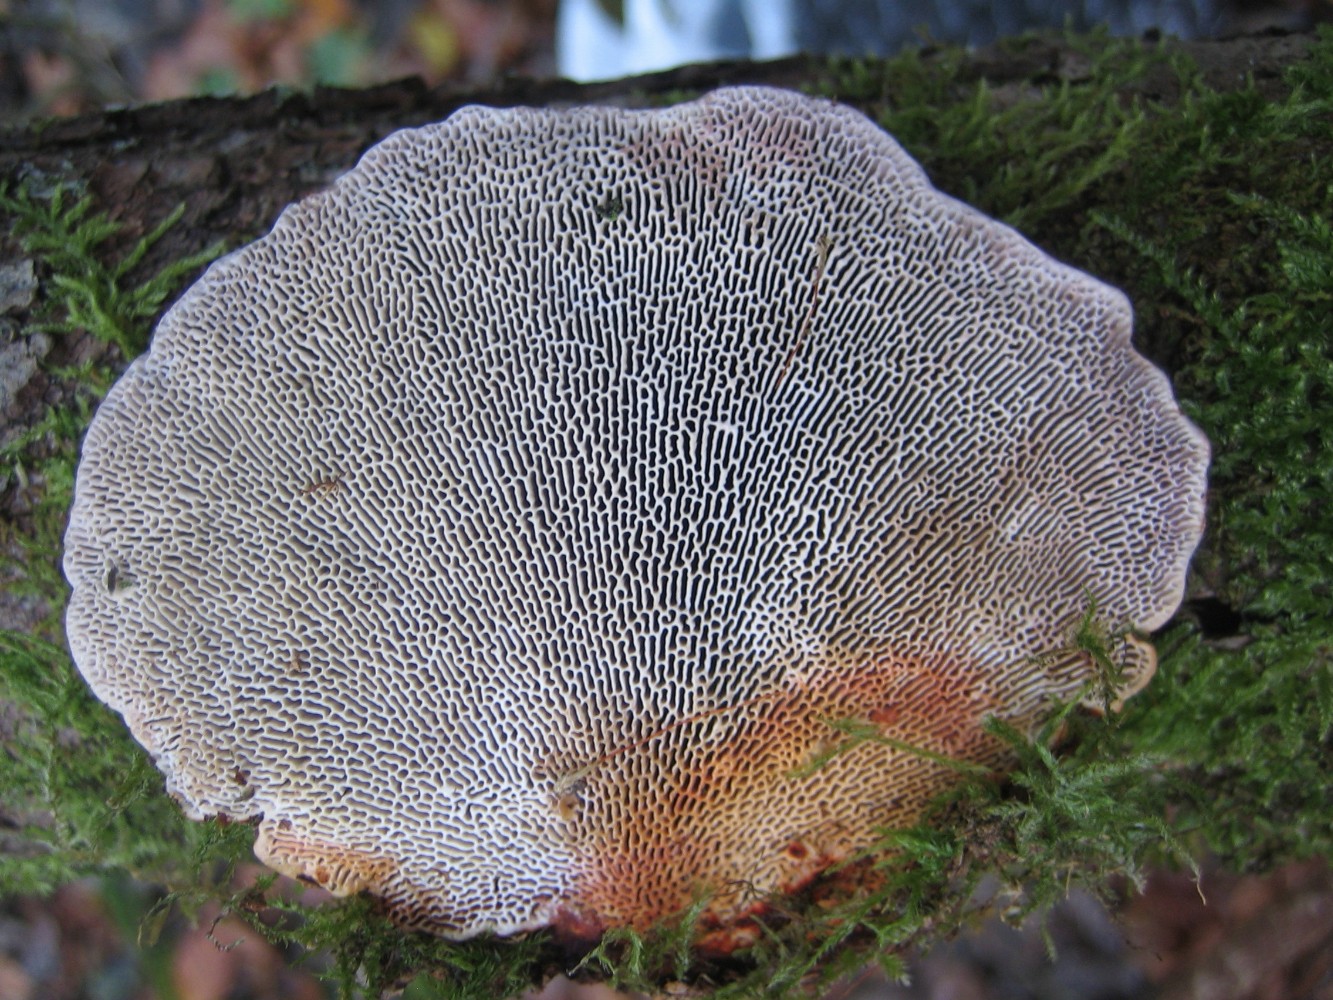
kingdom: Fungi
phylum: Basidiomycota
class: Agaricomycetes
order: Polyporales
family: Polyporaceae
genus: Daedaleopsis
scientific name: Daedaleopsis confragosa
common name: rødmende læderporesvamp
